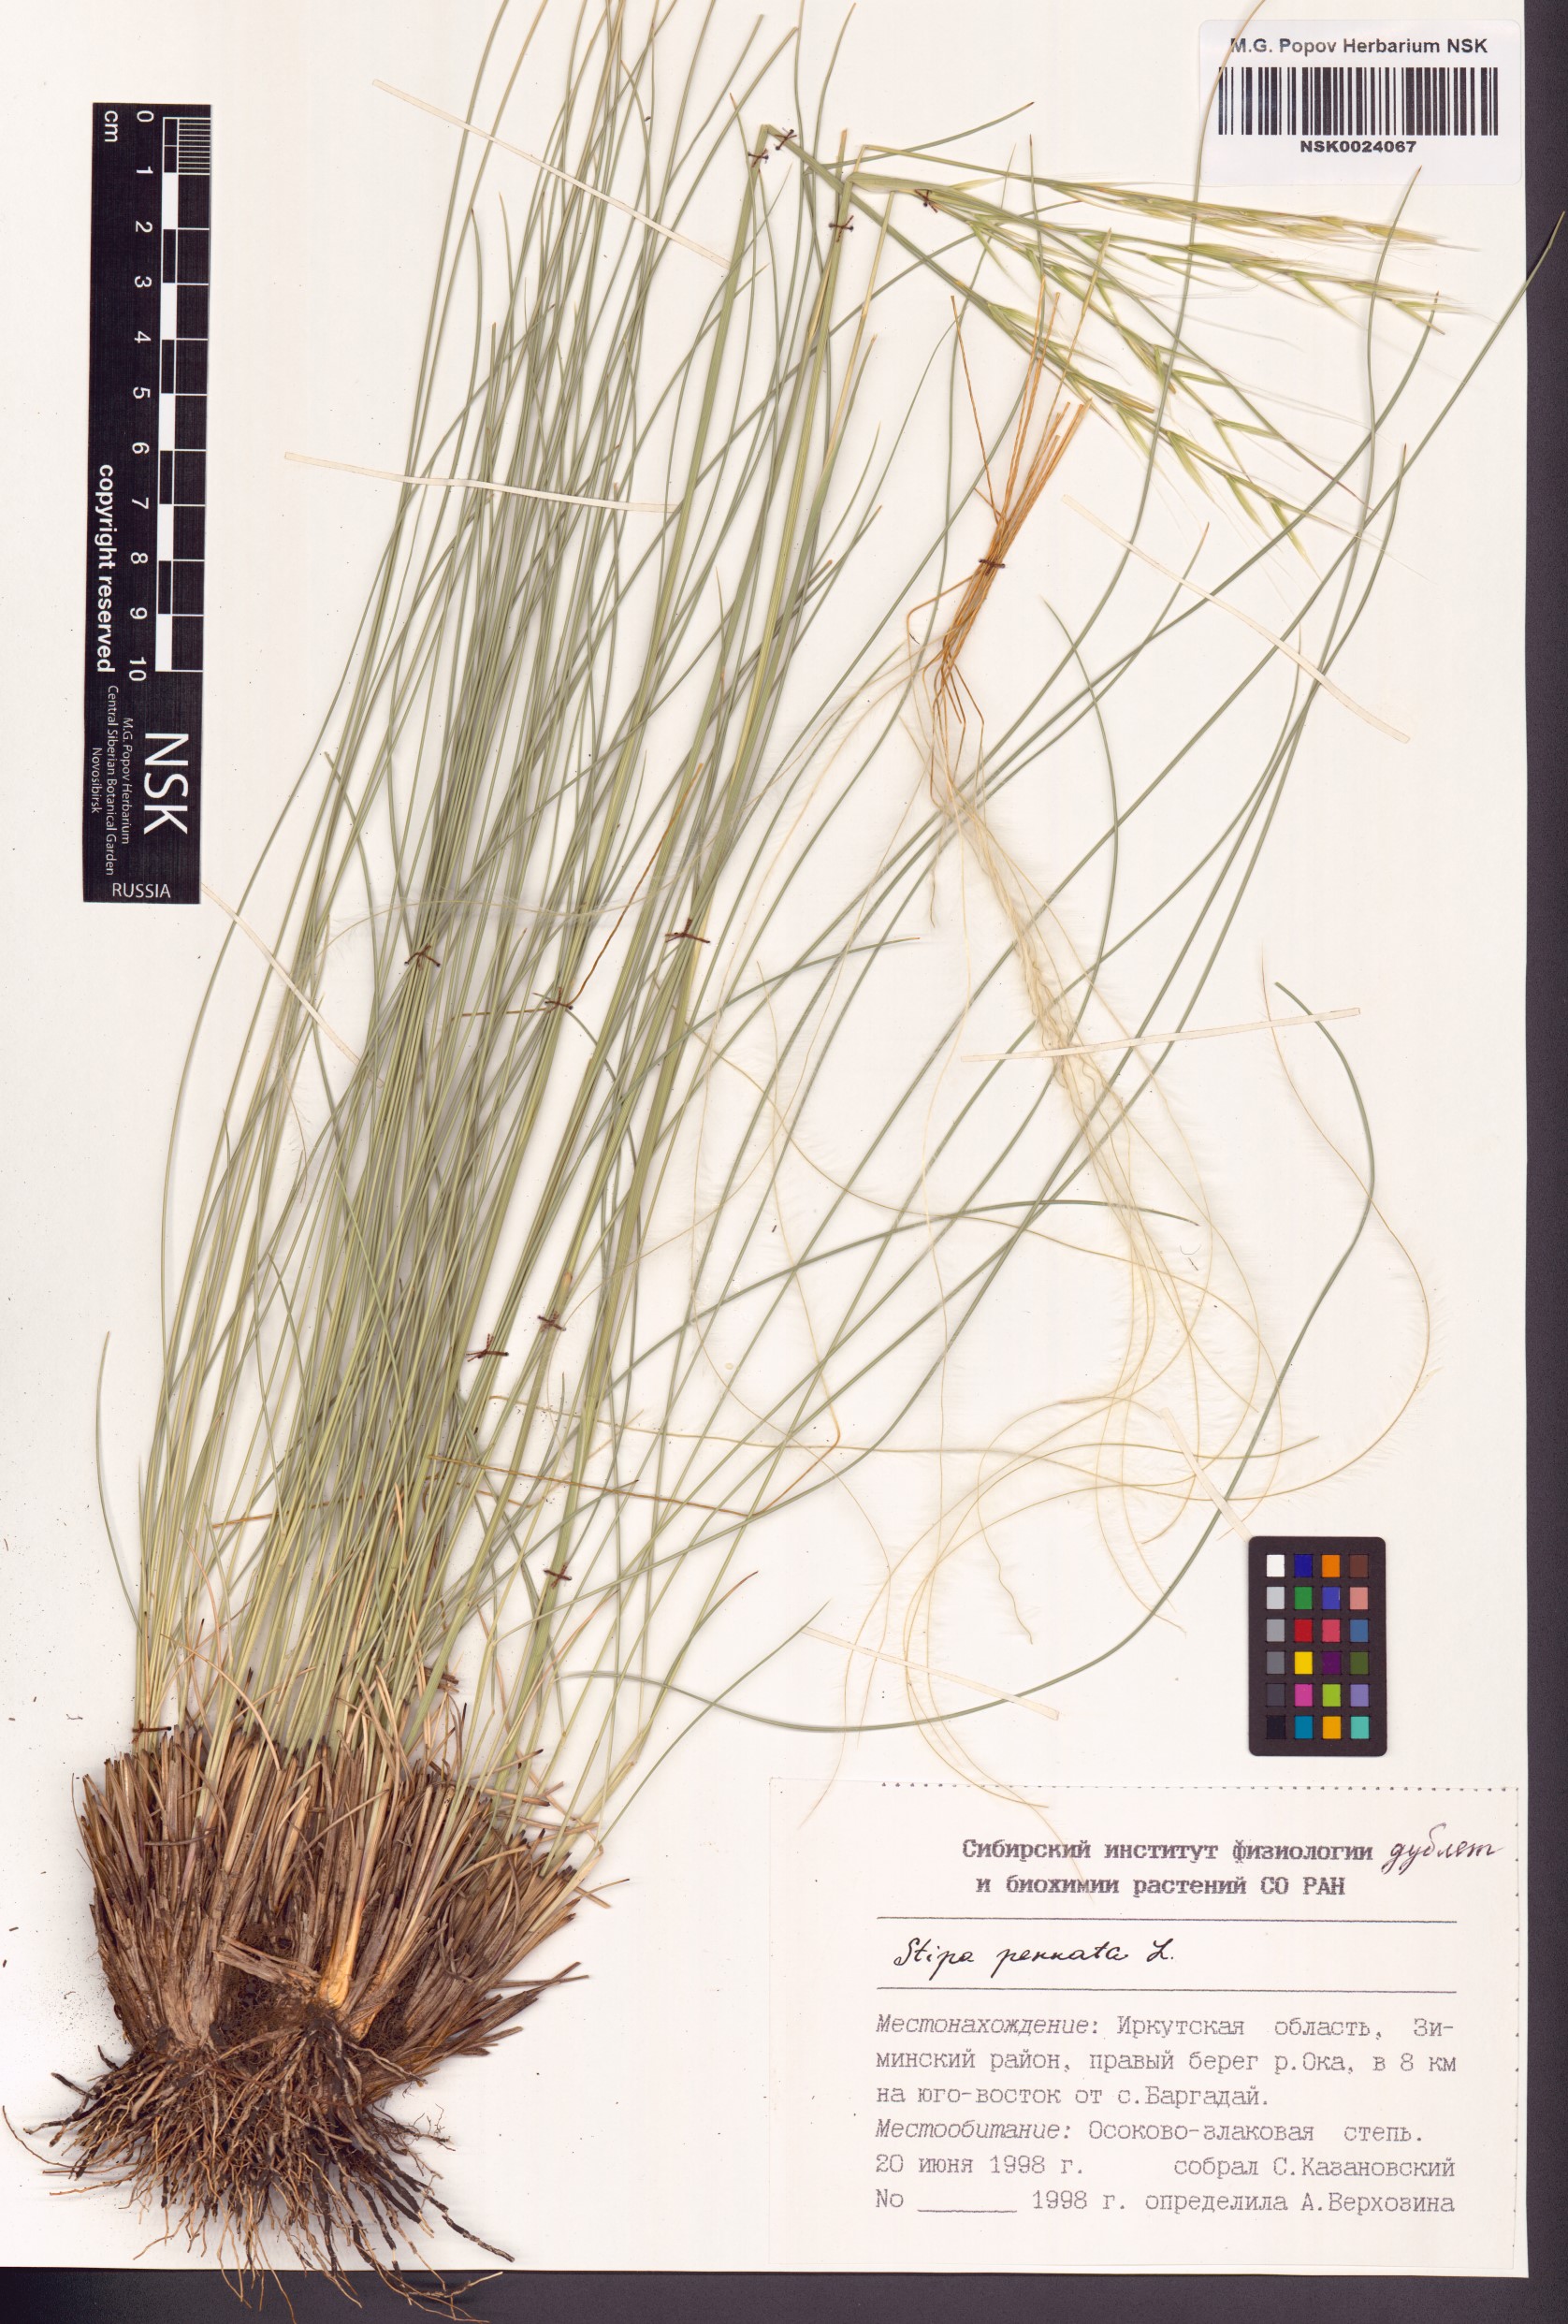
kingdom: Plantae
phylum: Tracheophyta
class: Liliopsida
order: Poales
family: Poaceae
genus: Stipa
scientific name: Stipa pennata
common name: European feather grass
